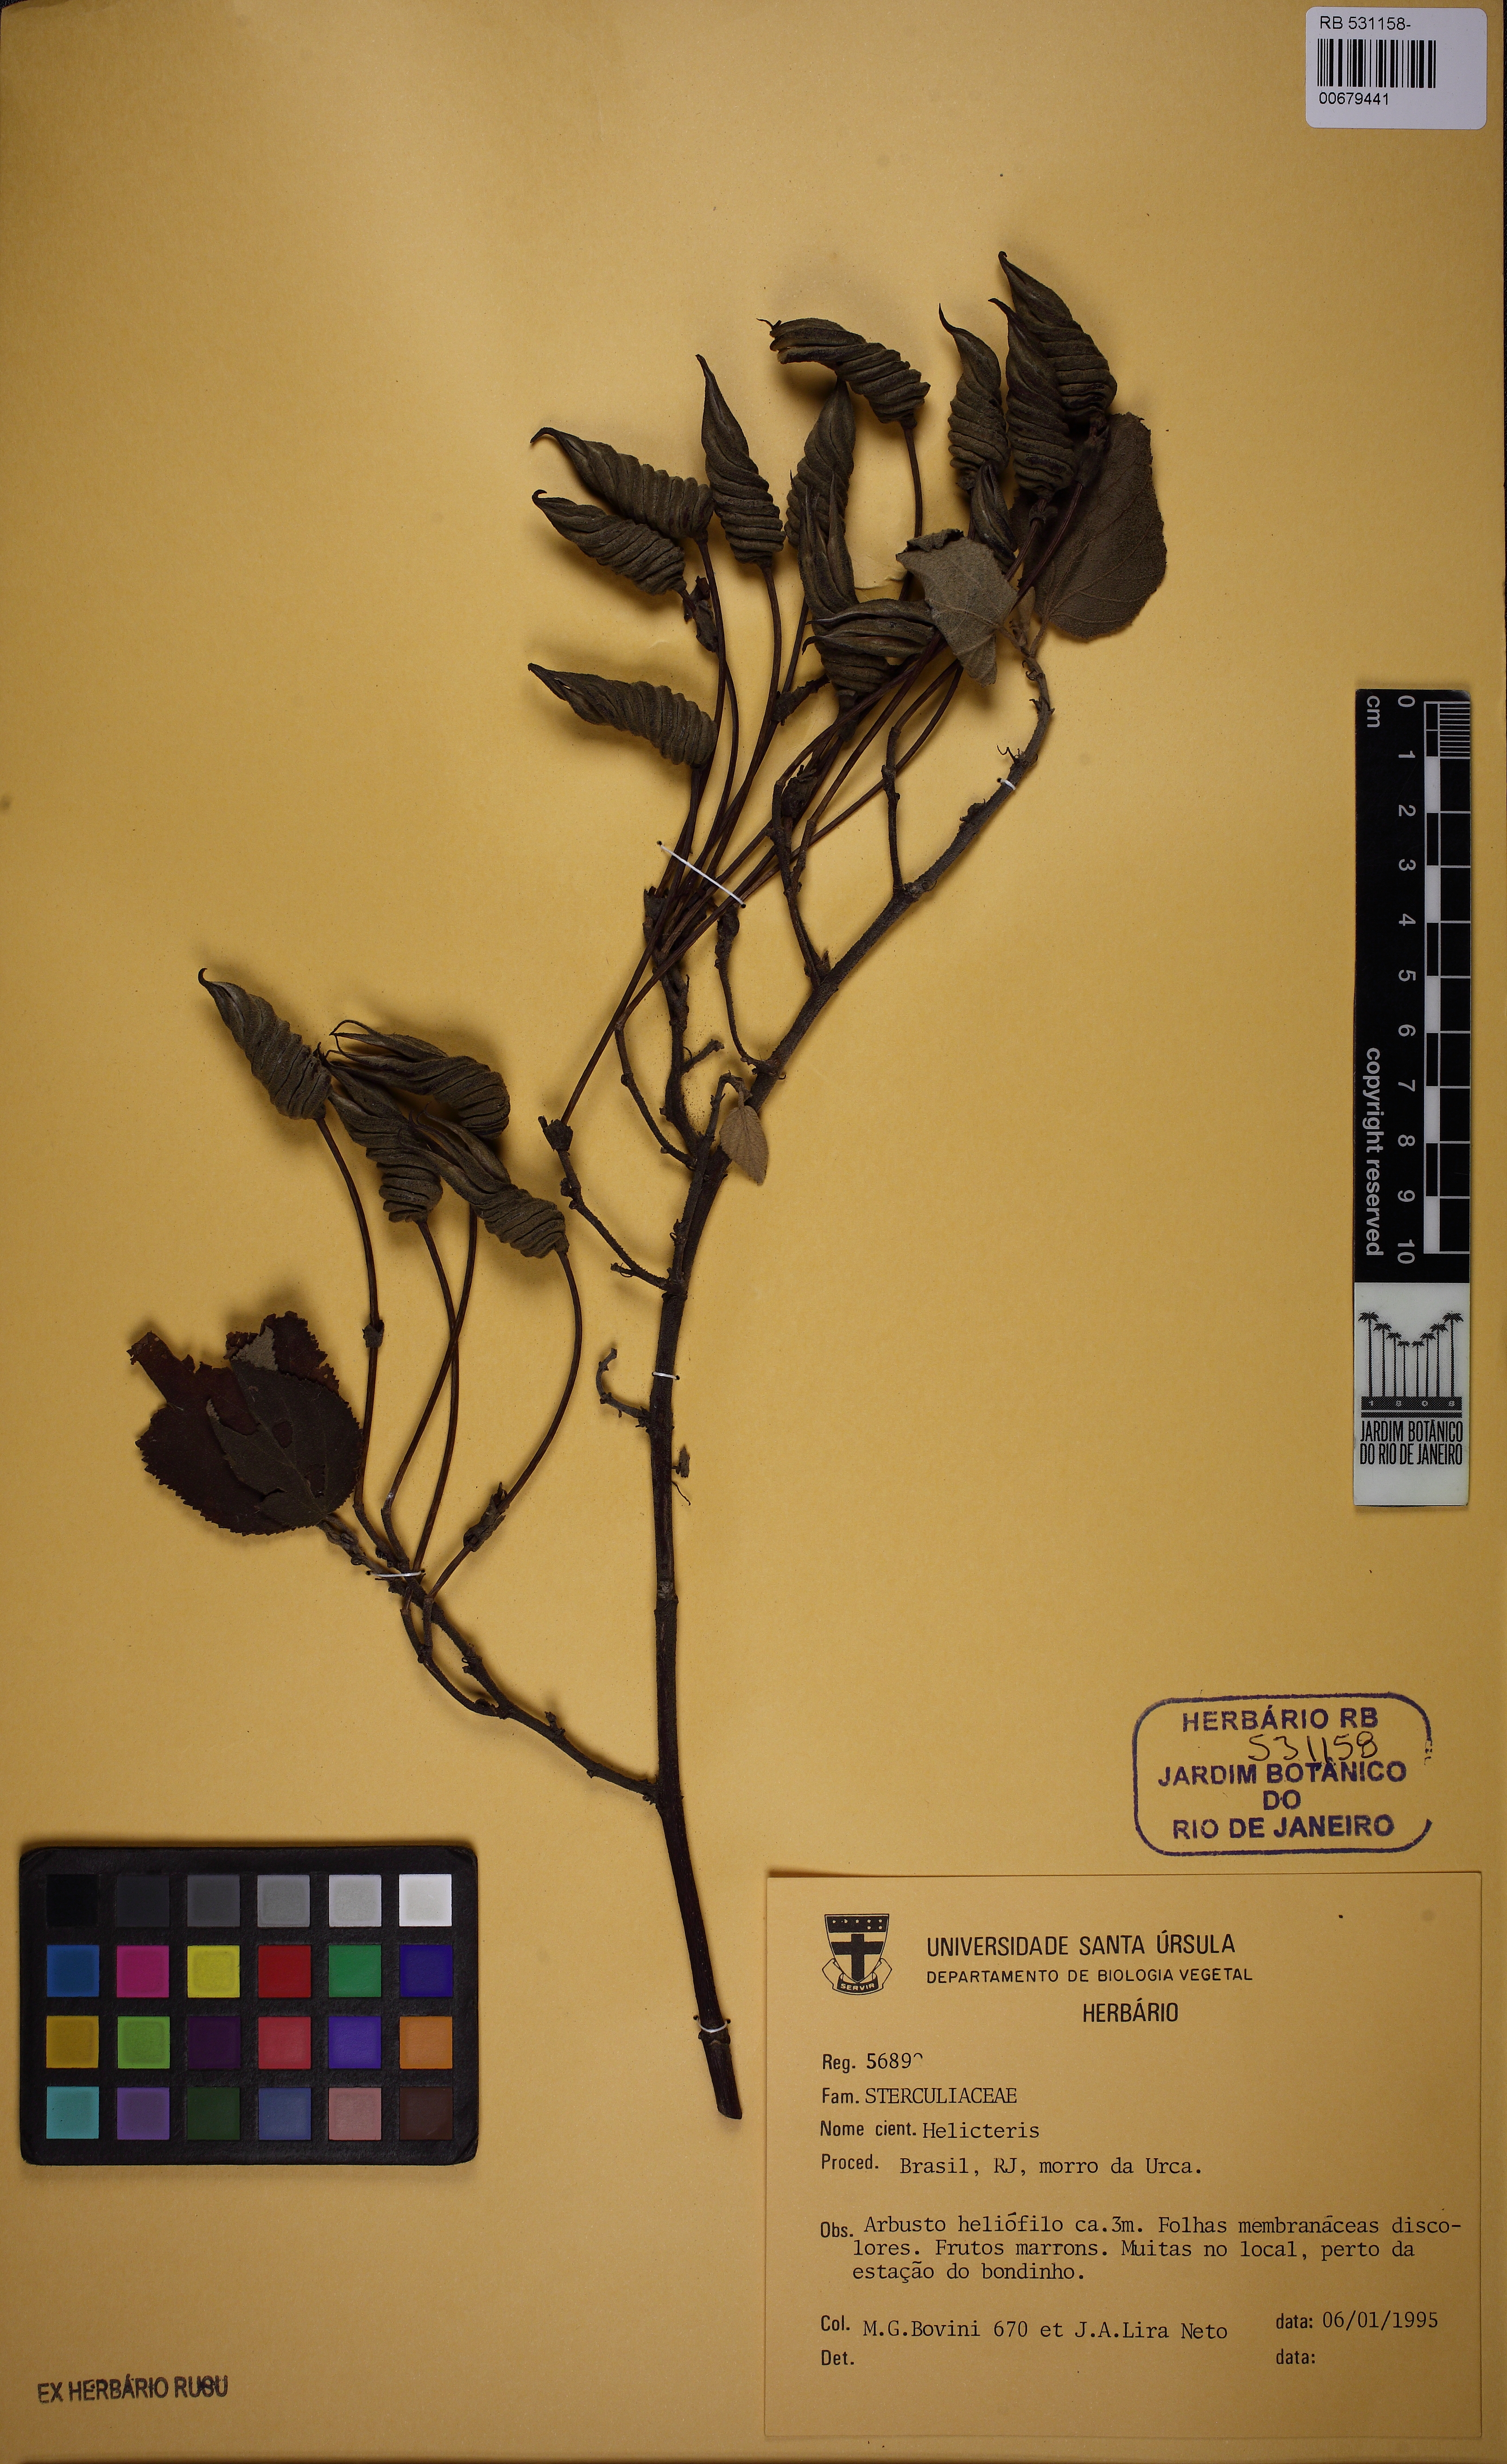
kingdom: Plantae
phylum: Tracheophyta
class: Magnoliopsida
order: Malvales
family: Malvaceae
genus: Helicteres
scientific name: Helicteres
